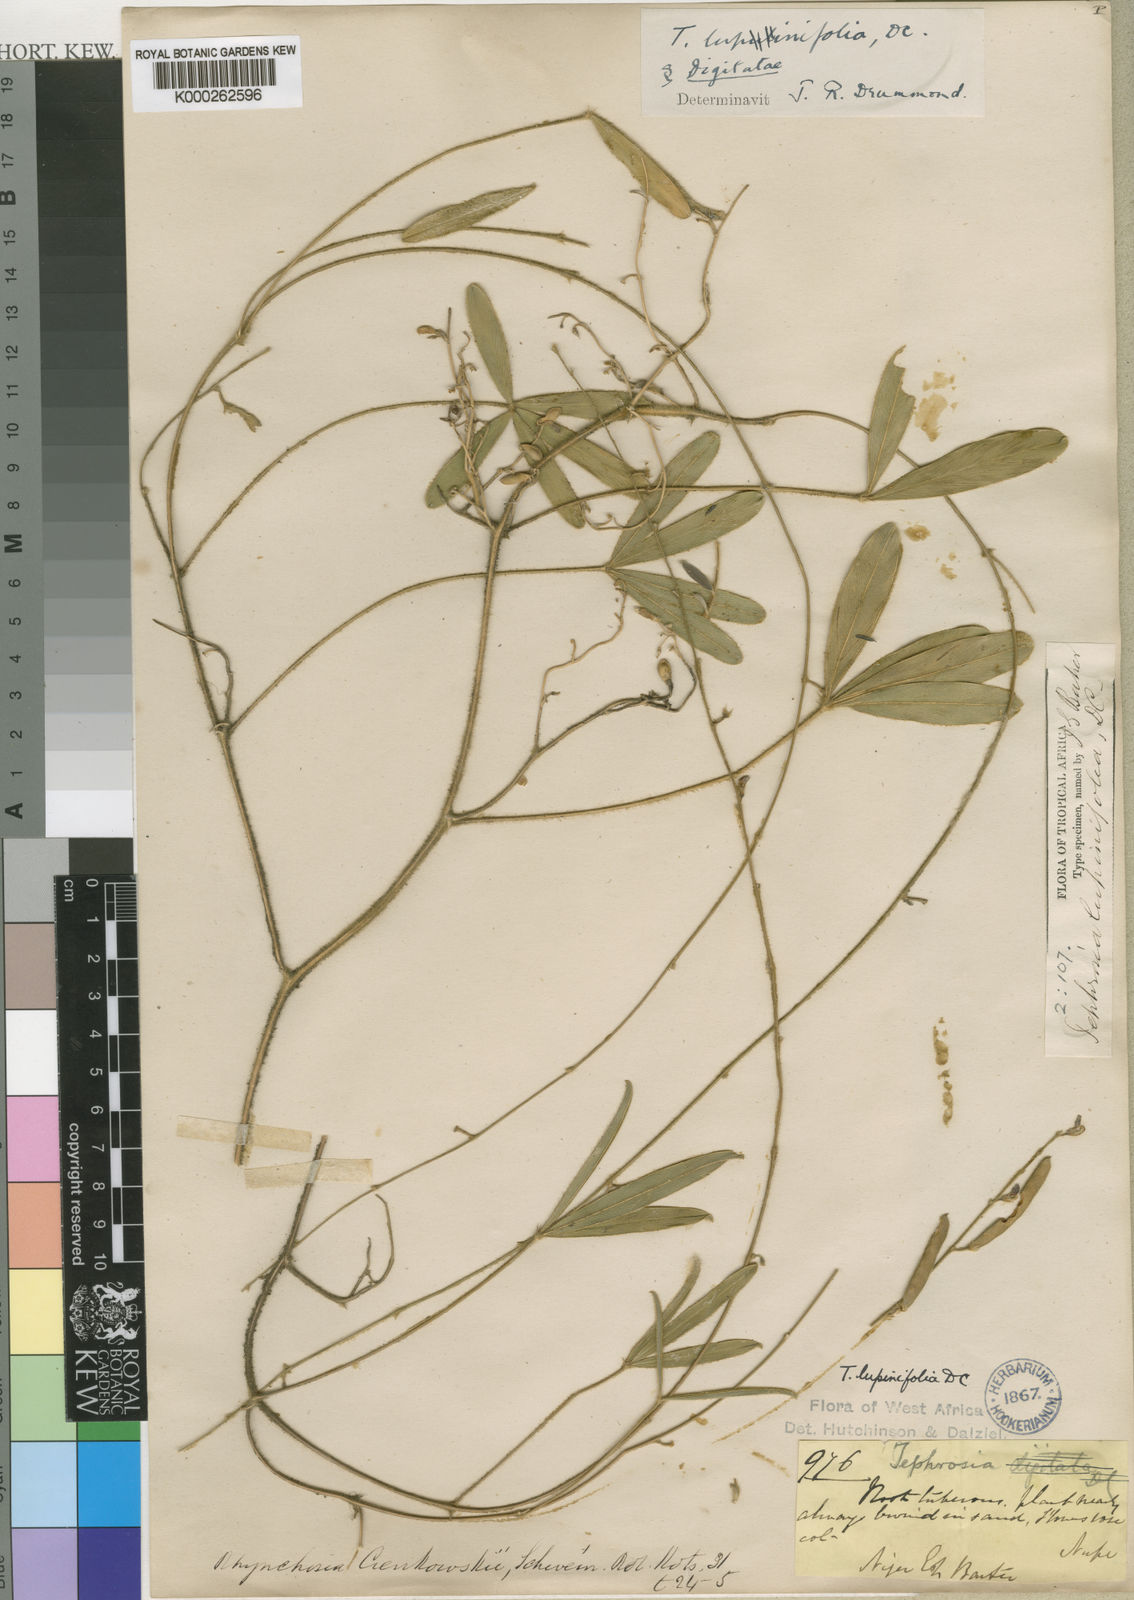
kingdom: Plantae
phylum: Tracheophyta
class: Magnoliopsida
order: Fabales
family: Fabaceae
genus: Tephrosia
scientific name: Tephrosia lupinifolia
